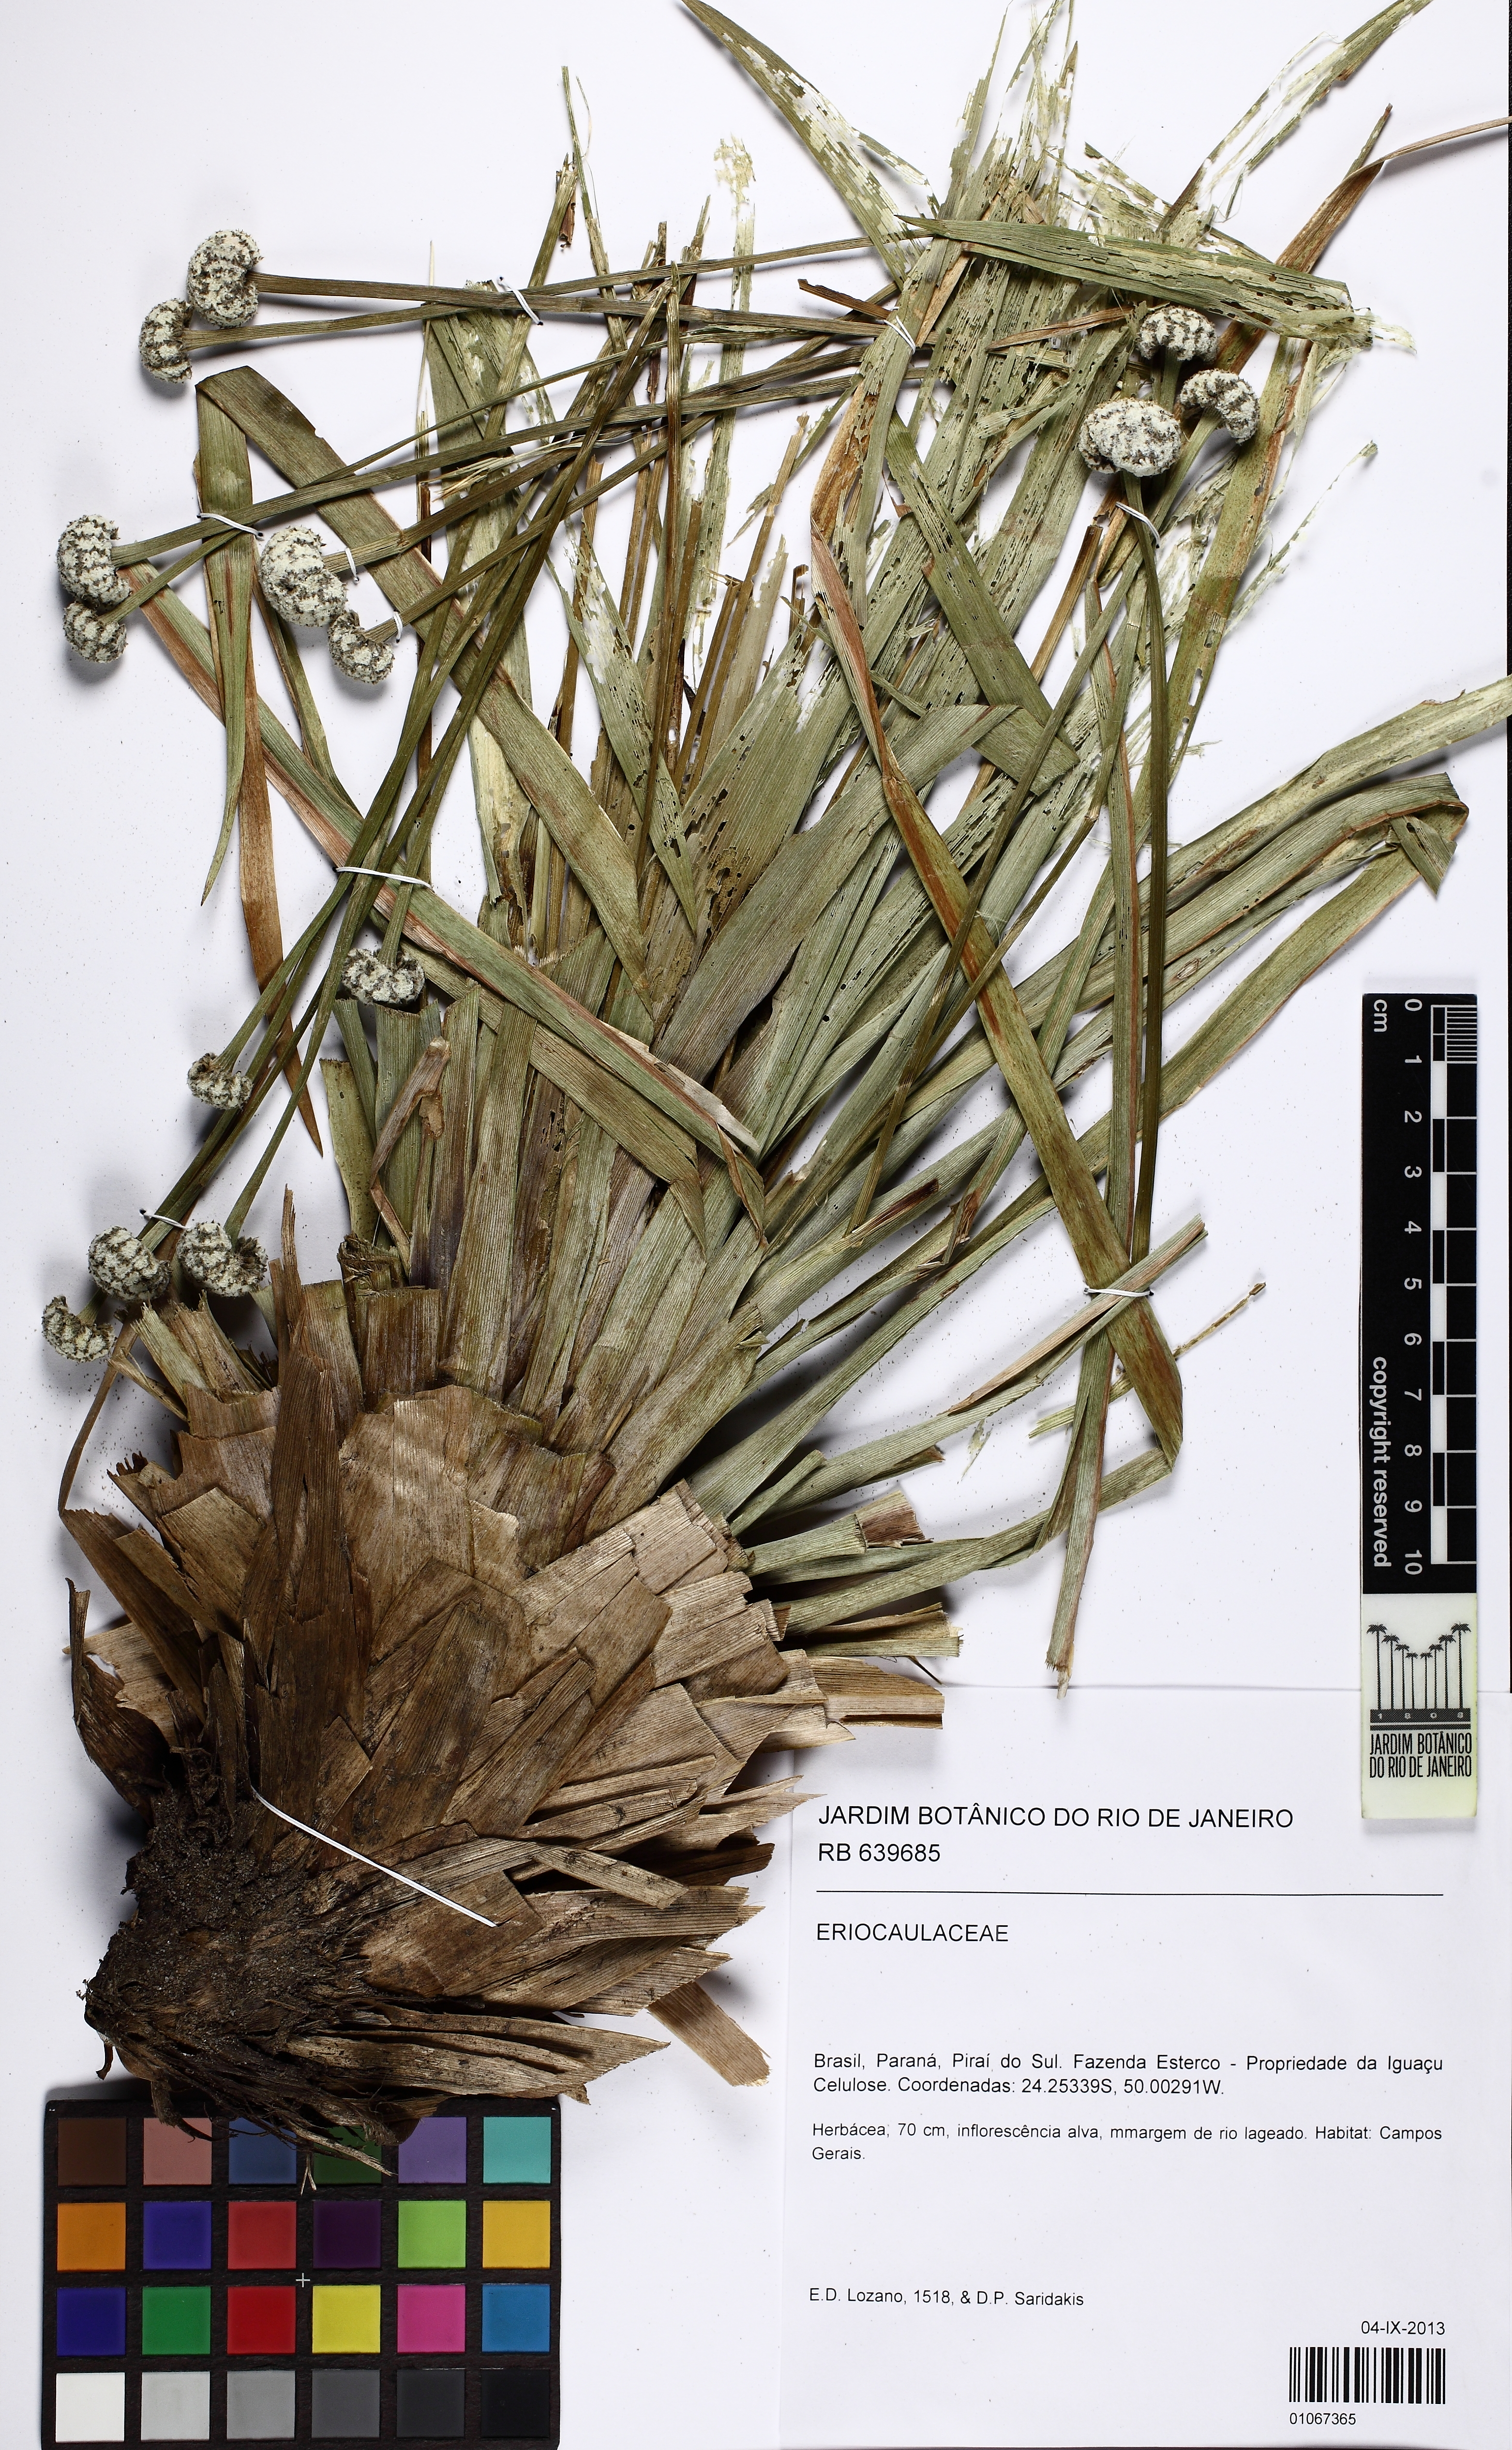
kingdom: Plantae
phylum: Tracheophyta
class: Liliopsida
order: Poales
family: Eriocaulaceae
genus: Paepalanthus
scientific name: Paepalanthus planifolius
